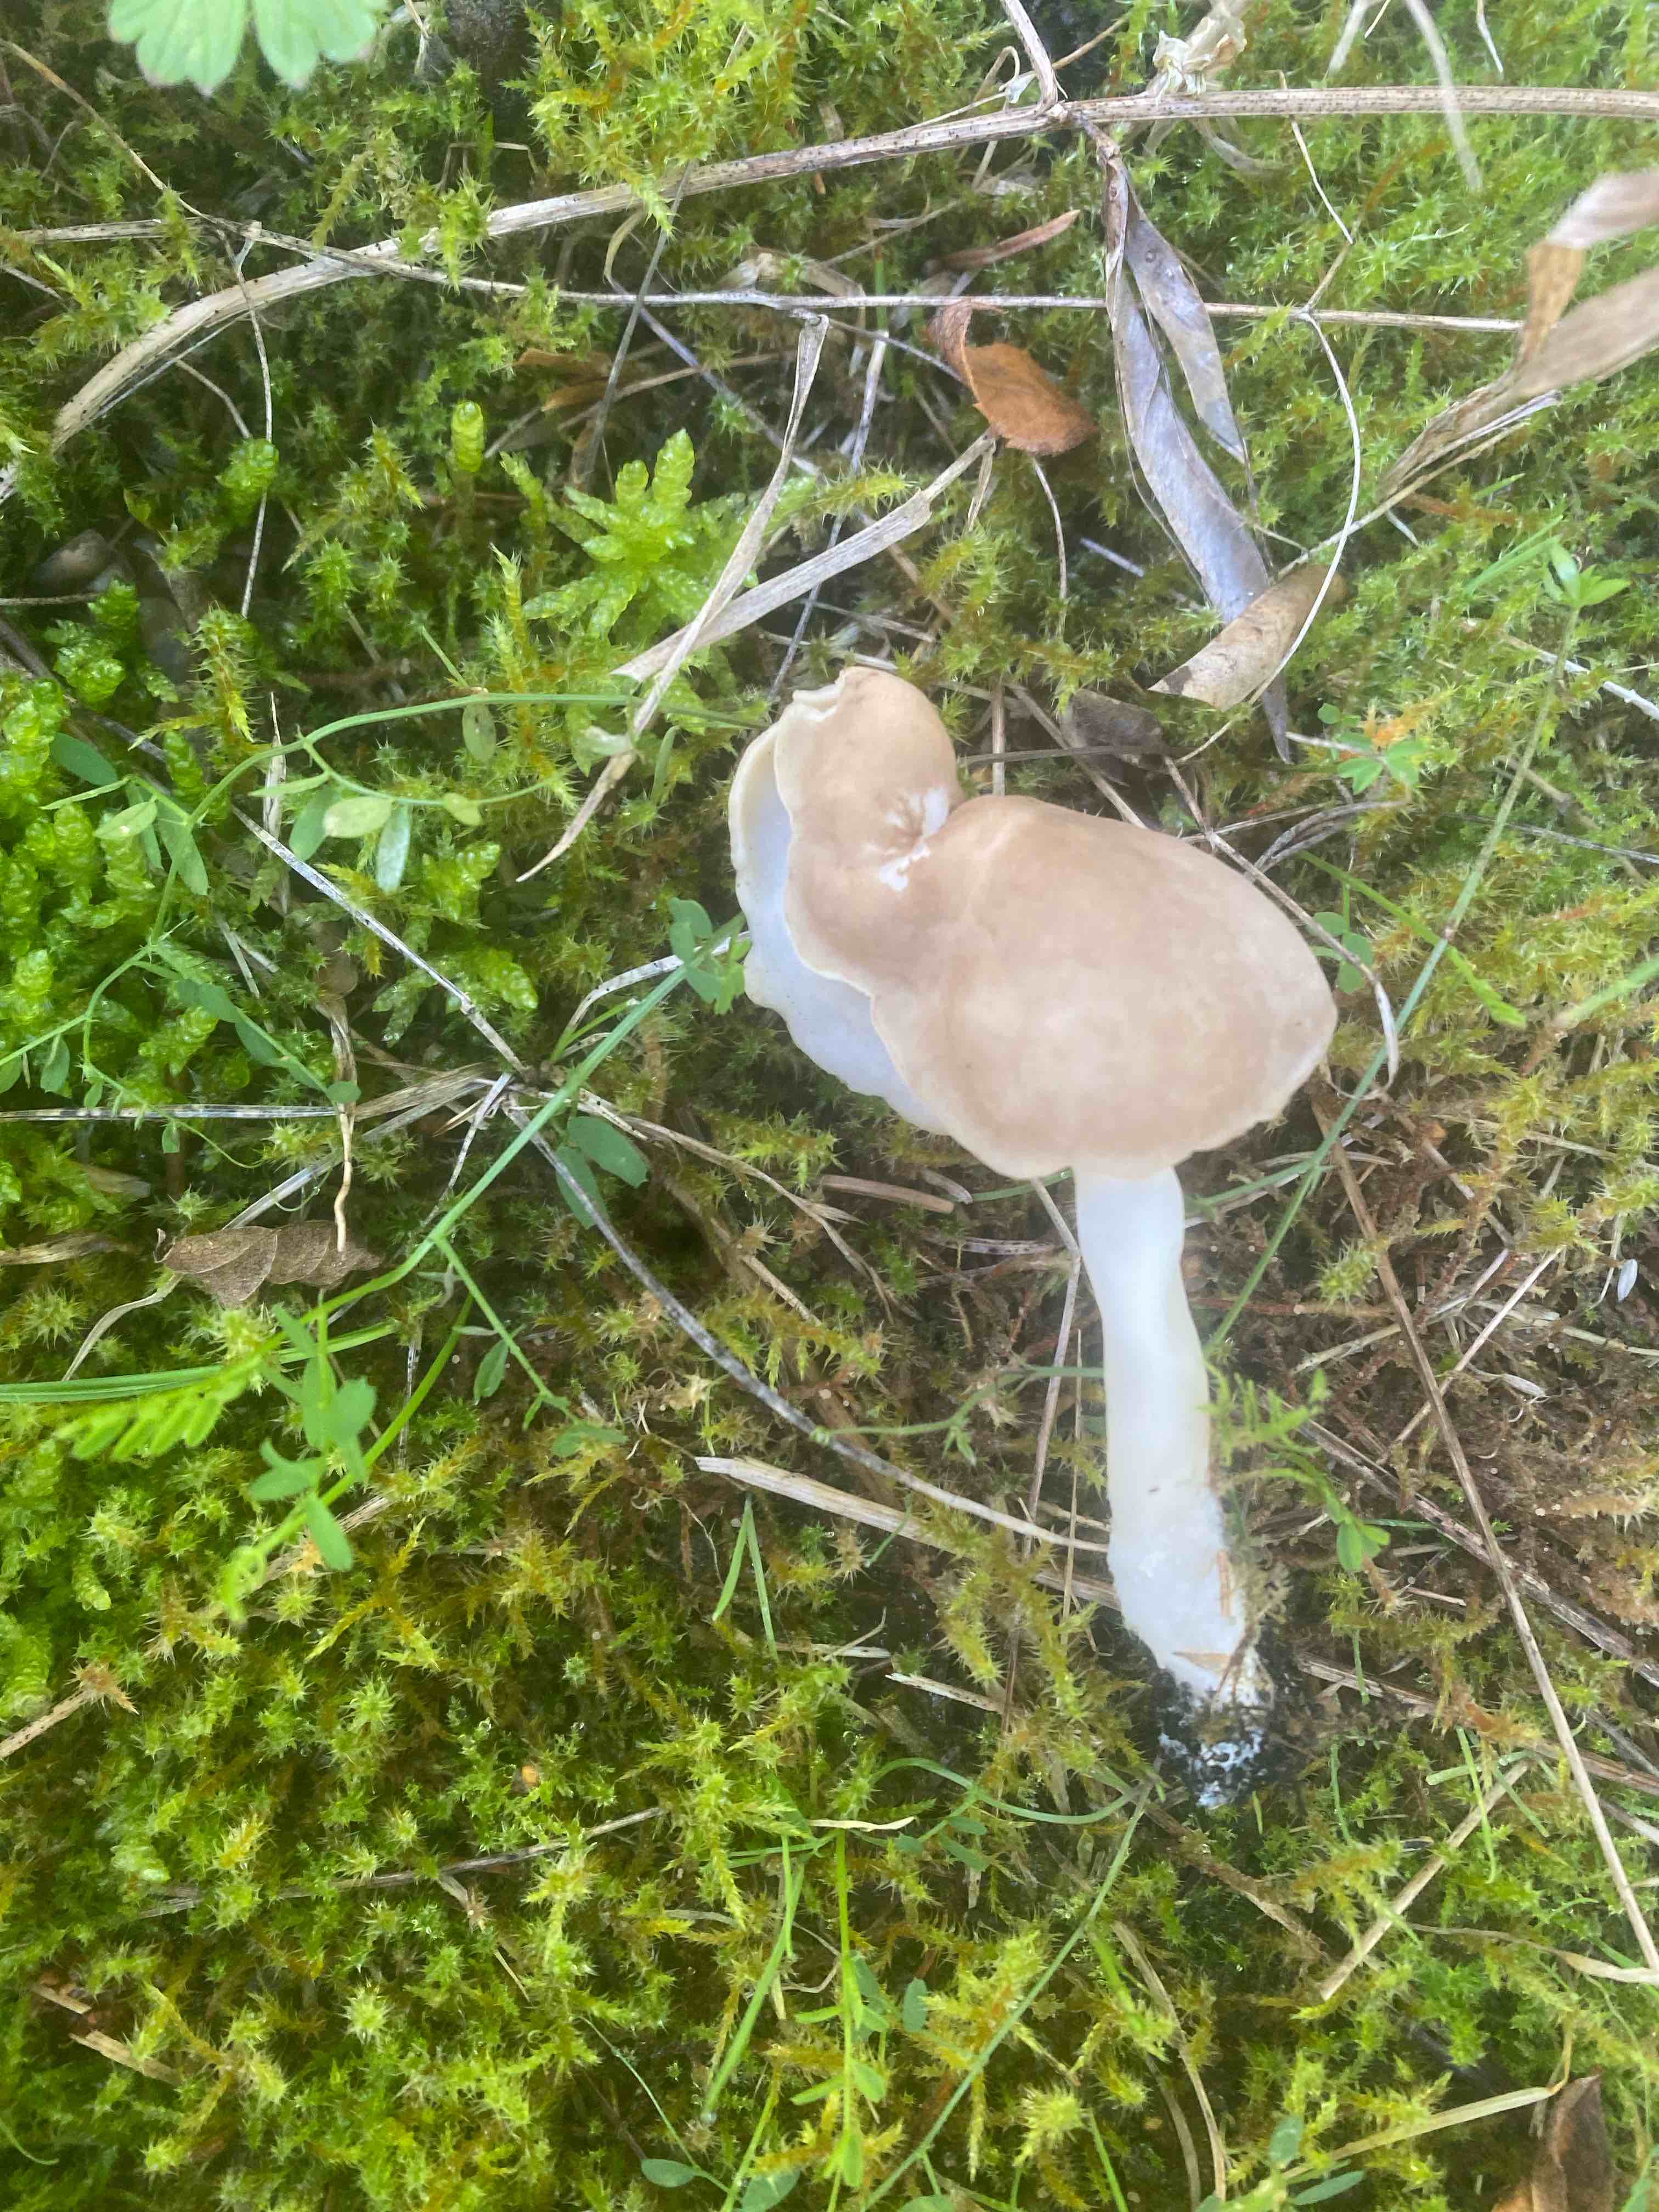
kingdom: Fungi
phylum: Ascomycota
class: Pezizomycetes
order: Pezizales
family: Helvellaceae
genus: Helvella
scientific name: Helvella elastica
